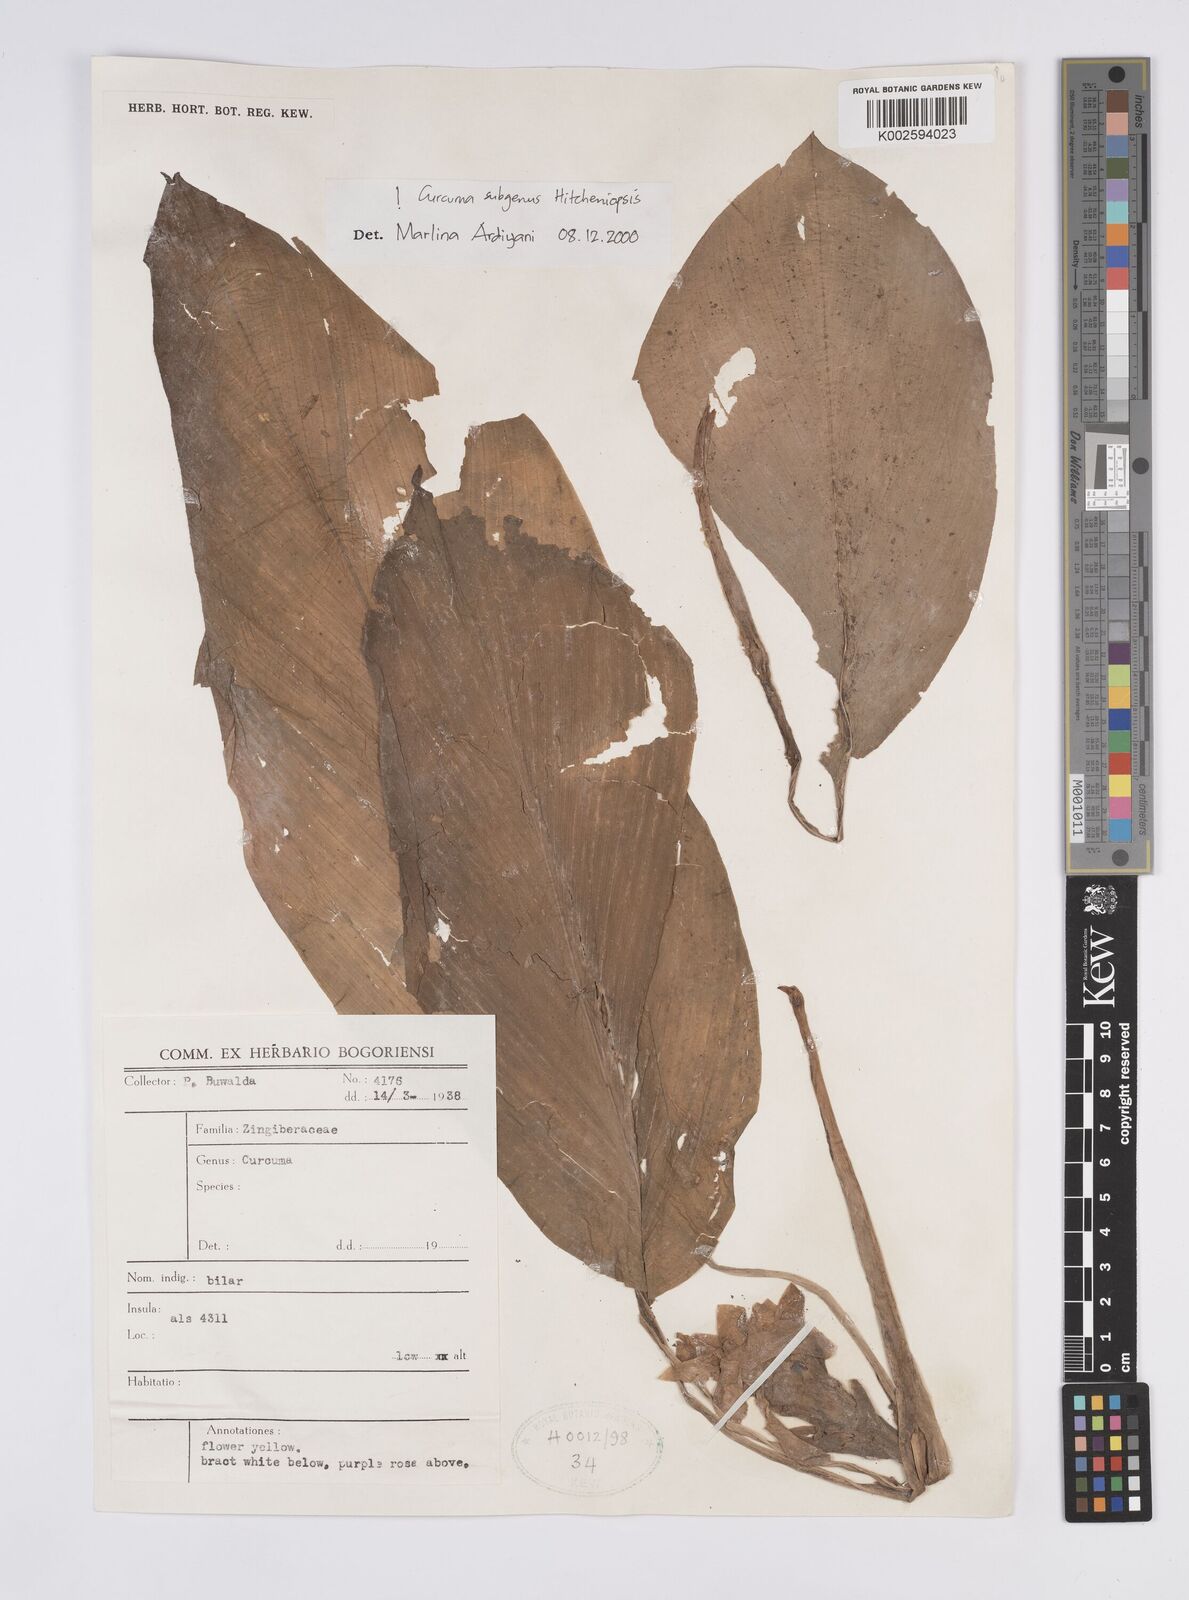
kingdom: Plantae
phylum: Tracheophyta
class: Liliopsida
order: Zingiberales
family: Zingiberaceae
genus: Curcuma
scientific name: Curcuma
